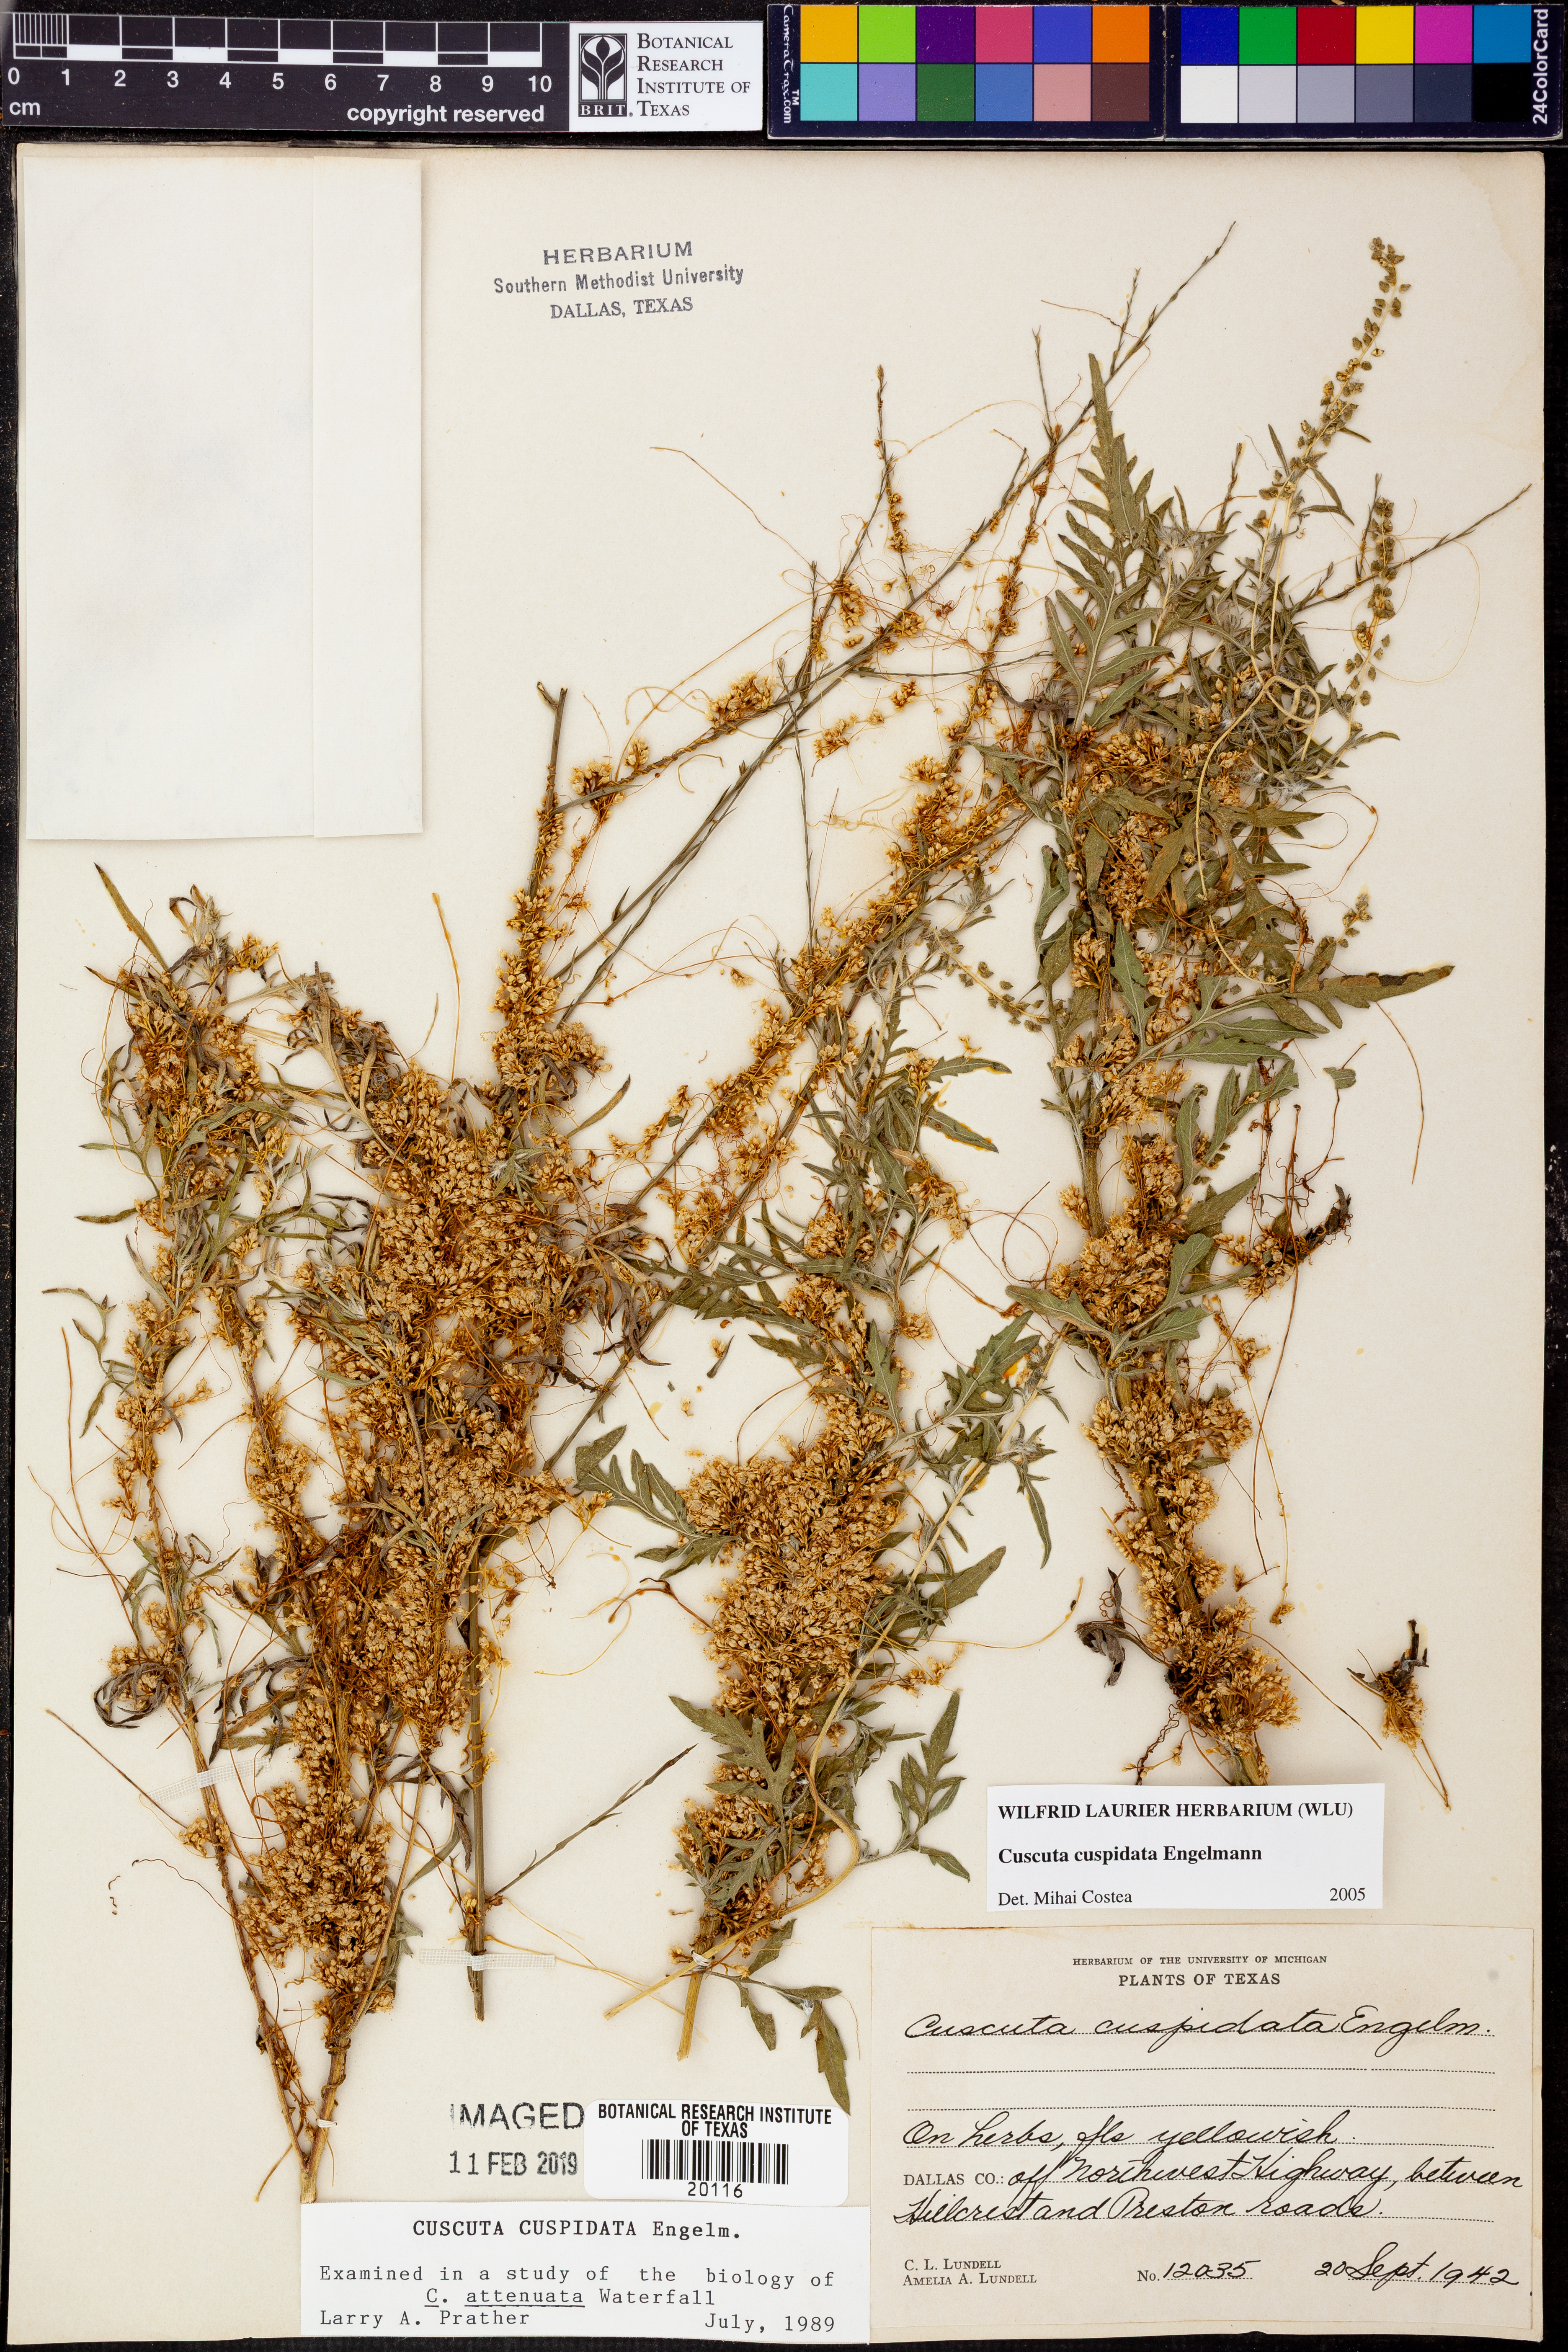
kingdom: Plantae
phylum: Tracheophyta
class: Magnoliopsida
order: Solanales
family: Convolvulaceae
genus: Cuscuta
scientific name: Cuscuta cuspidata
